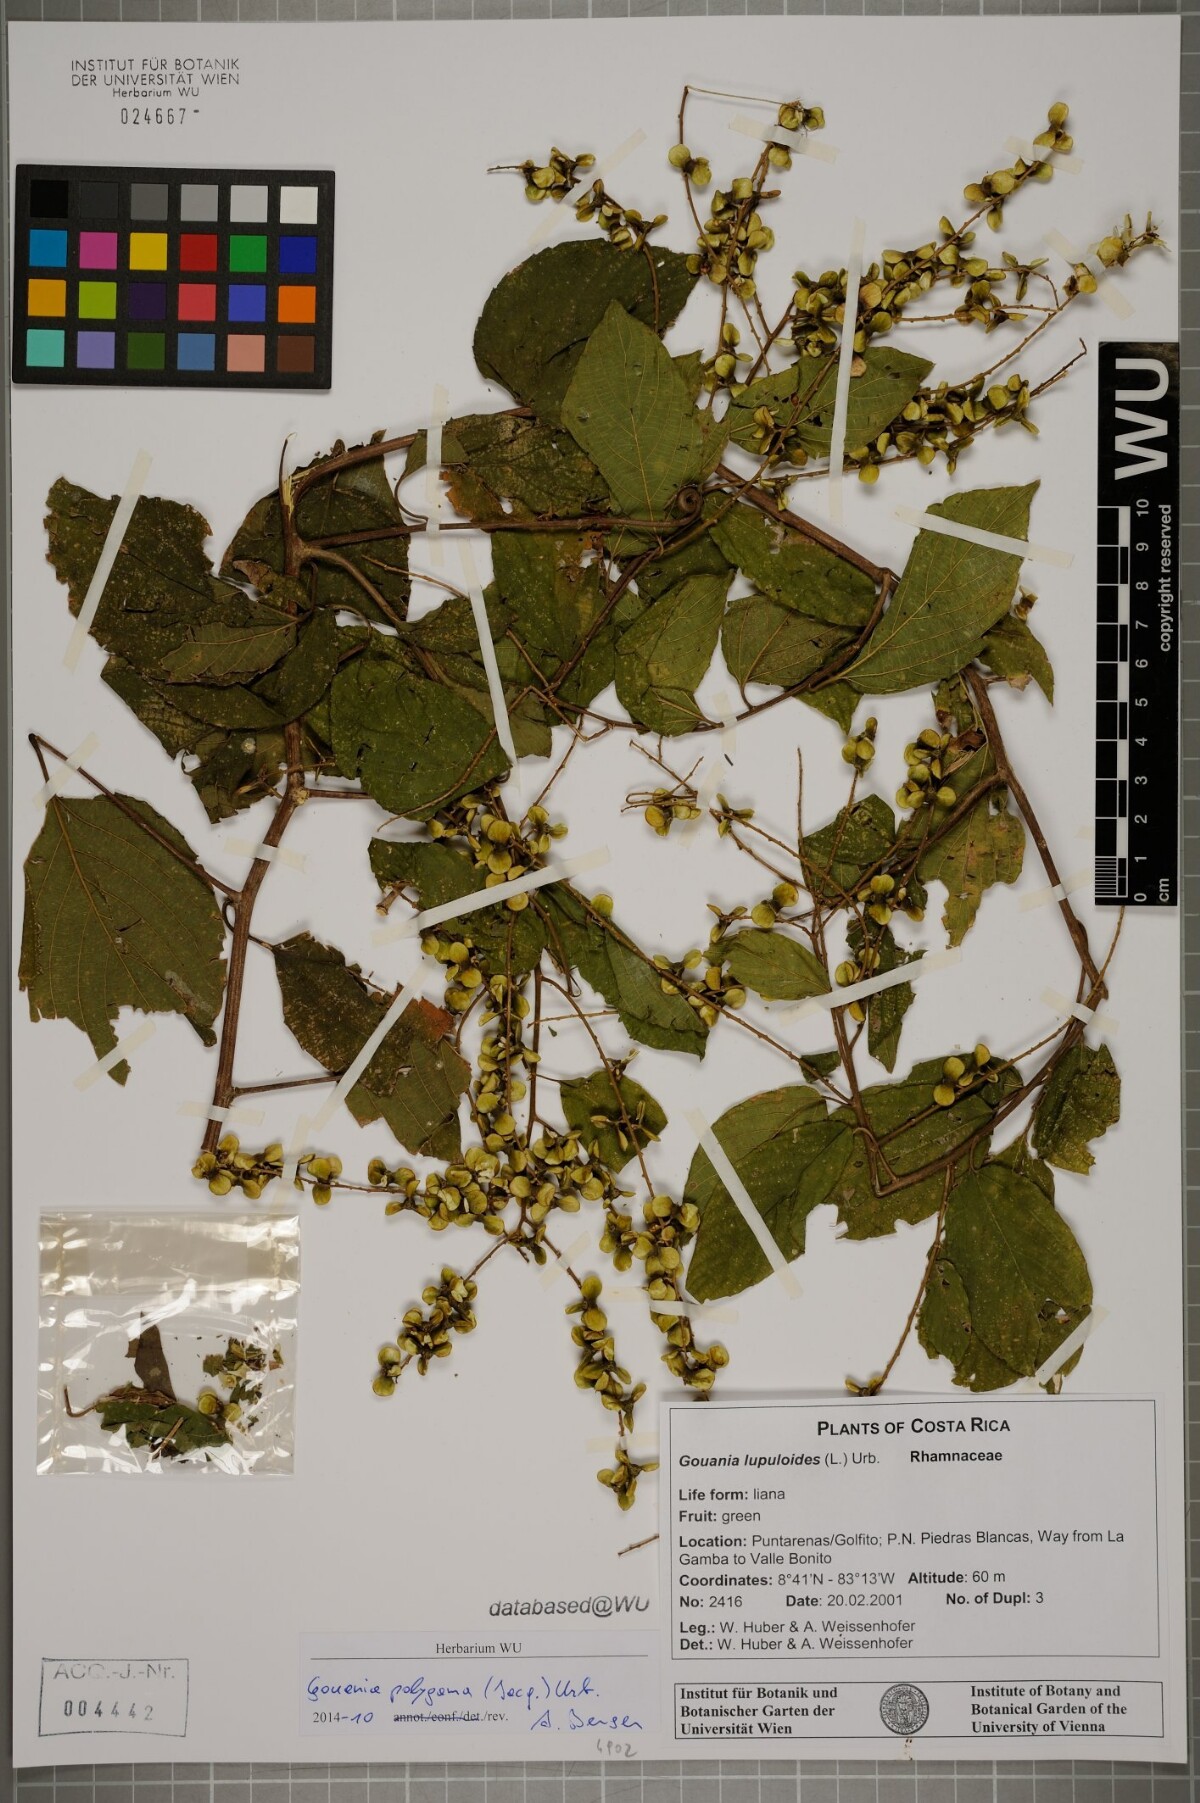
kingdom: Plantae
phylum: Tracheophyta
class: Magnoliopsida
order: Rosales
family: Rhamnaceae
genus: Gouania
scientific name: Gouania polygama
